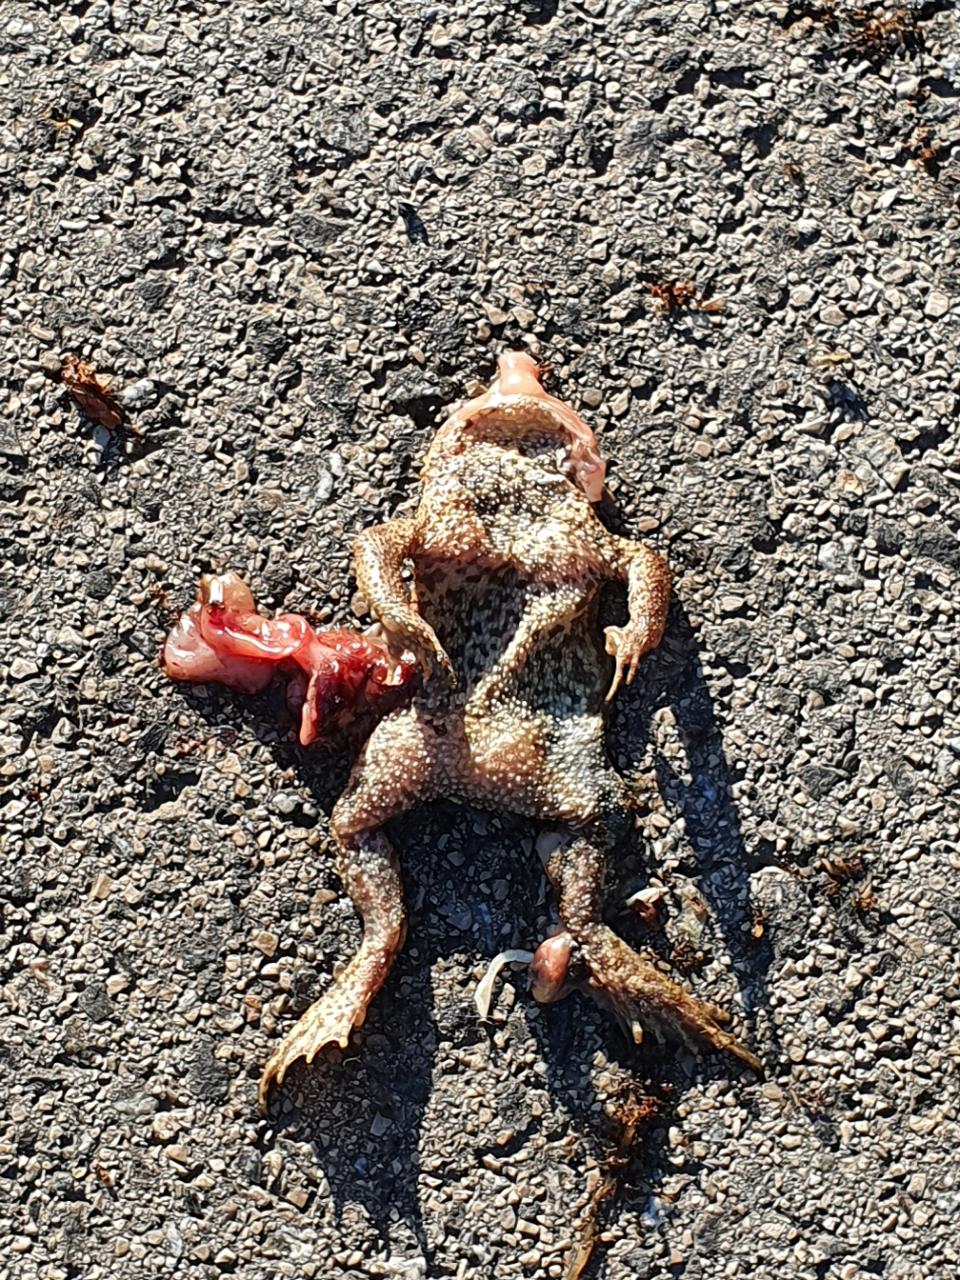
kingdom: Animalia
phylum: Chordata
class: Amphibia
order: Anura
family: Bufonidae
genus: Bufo
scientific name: Bufo bufo
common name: Common toad
